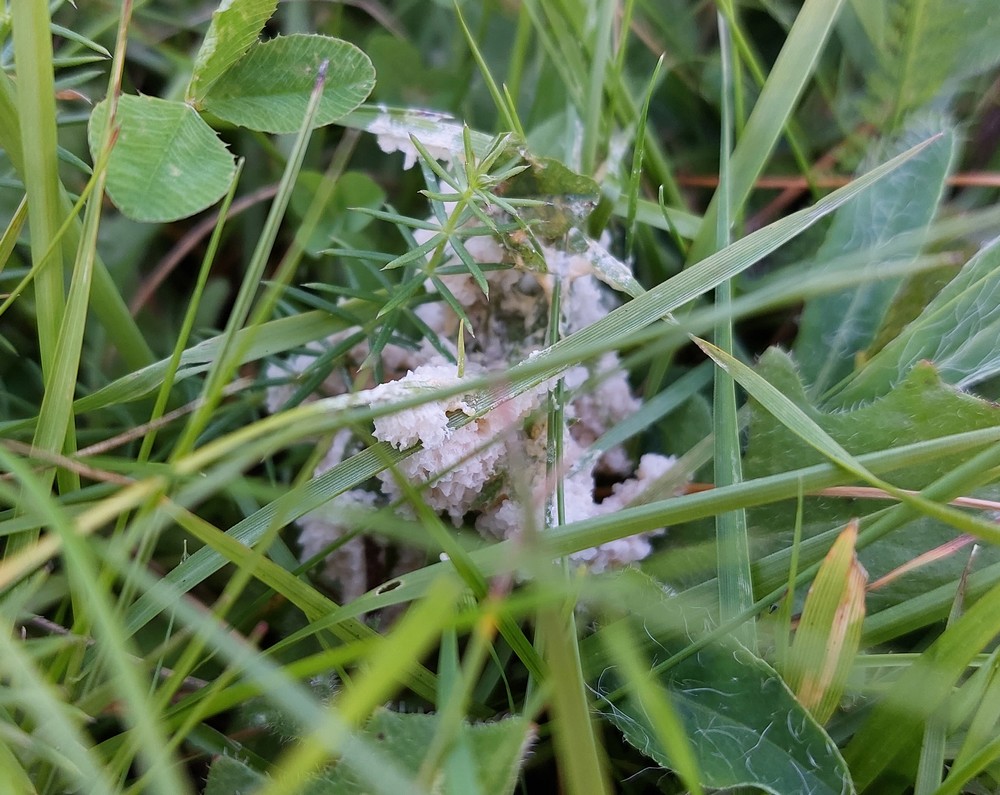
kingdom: Protozoa
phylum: Mycetozoa
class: Myxomycetes
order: Physarales
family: Physaraceae
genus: Didymium
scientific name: Didymium
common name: urteskum
